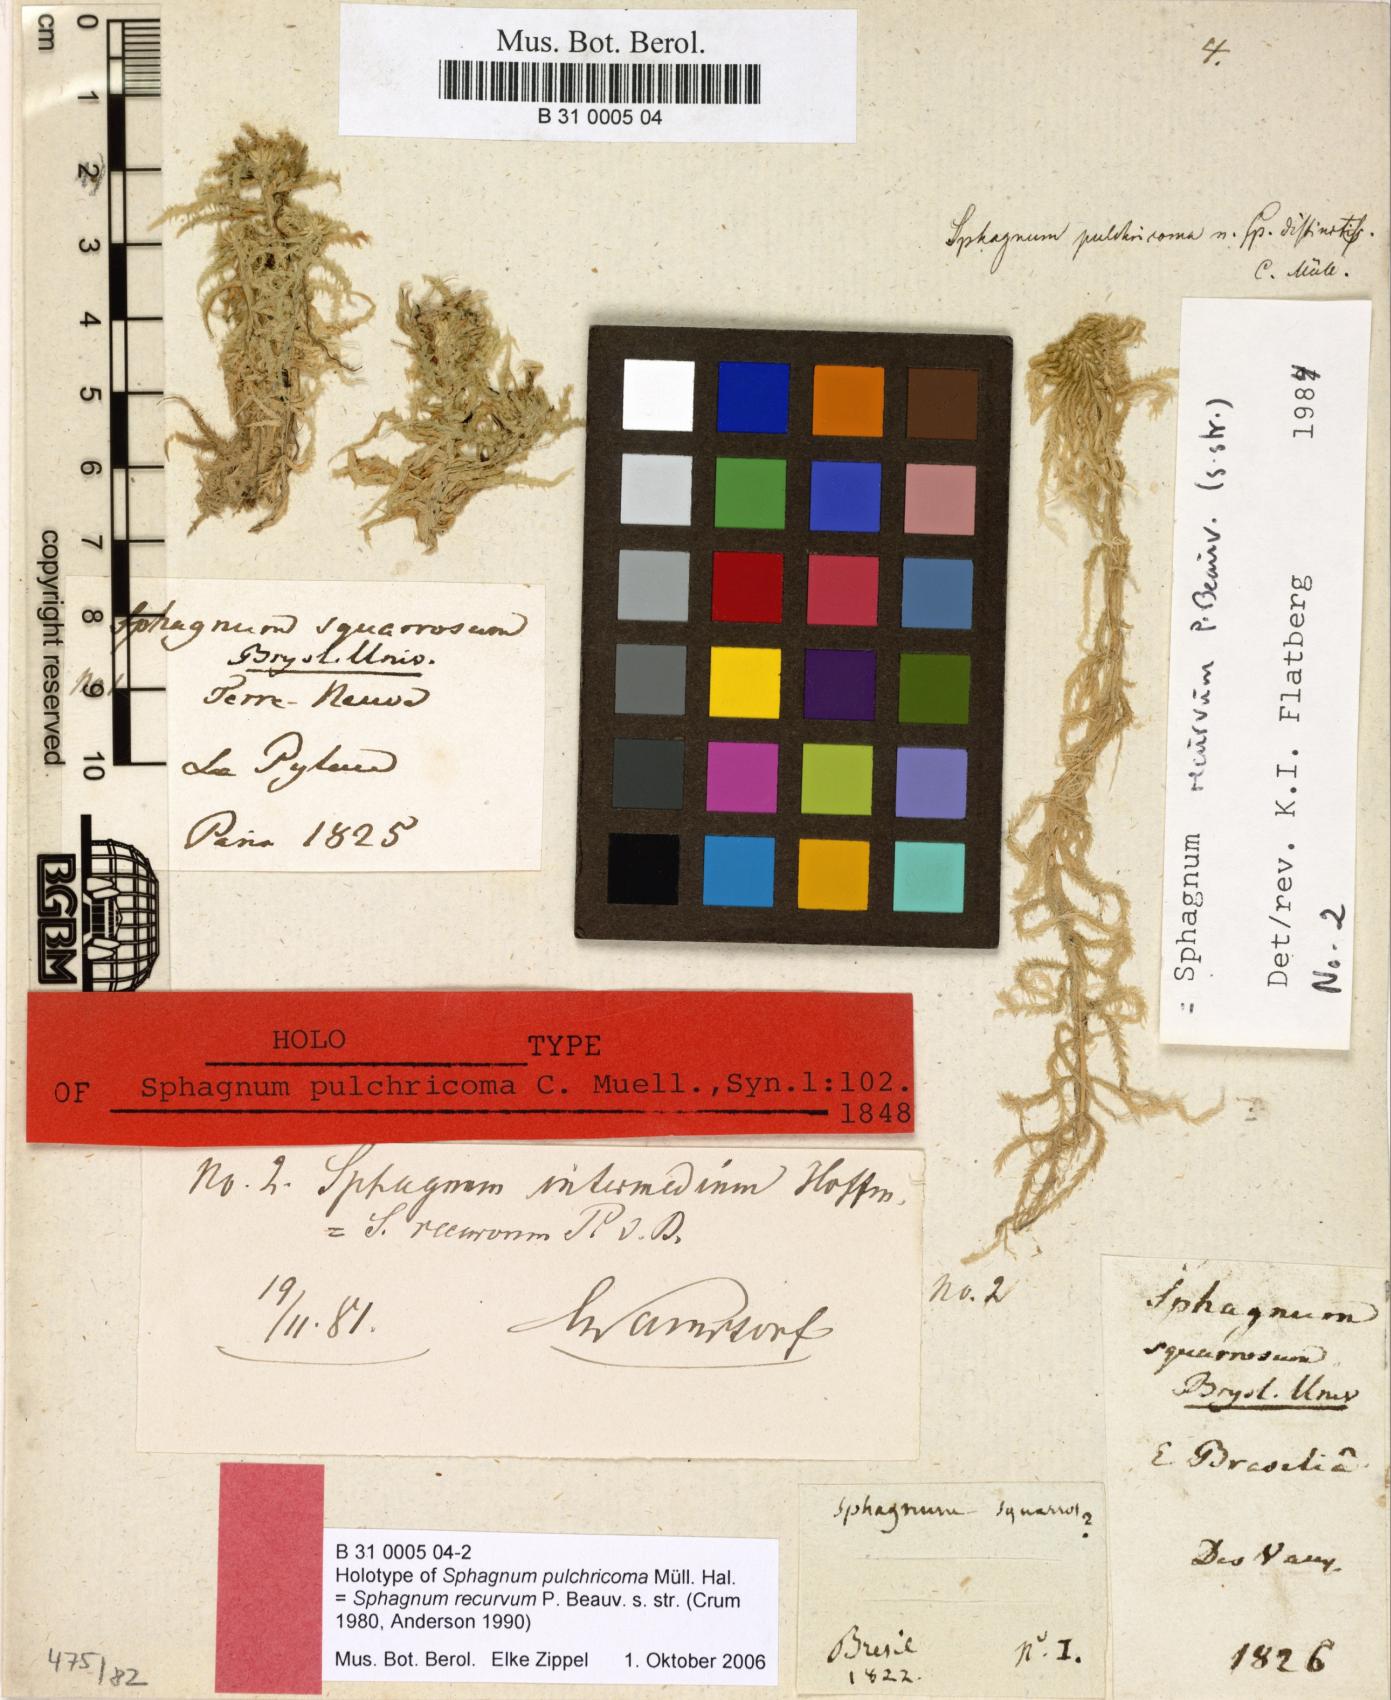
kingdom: Plantae
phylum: Bryophyta
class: Sphagnopsida
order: Sphagnales
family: Sphagnaceae
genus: Sphagnum
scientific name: Sphagnum squarrosum
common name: Shaggy peat moss
